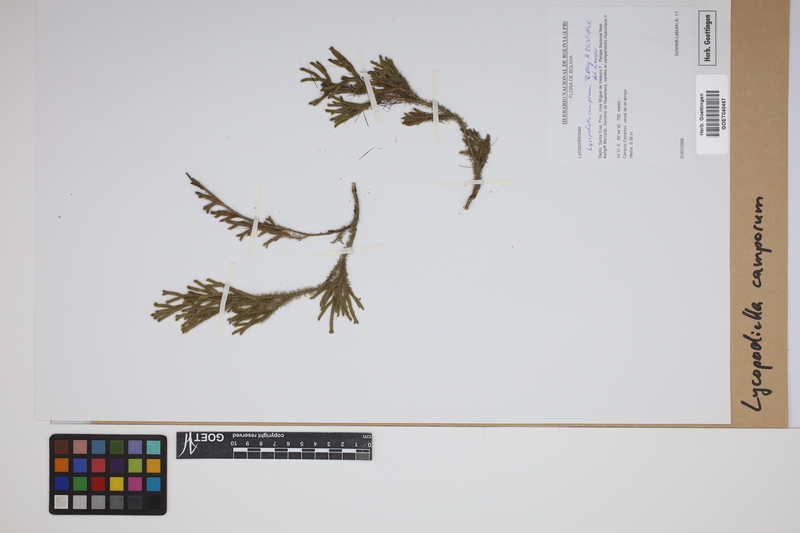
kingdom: Plantae
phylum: Tracheophyta
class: Lycopodiopsida
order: Lycopodiales
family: Lycopodiaceae
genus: Palhinhaea
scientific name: Palhinhaea camporum
